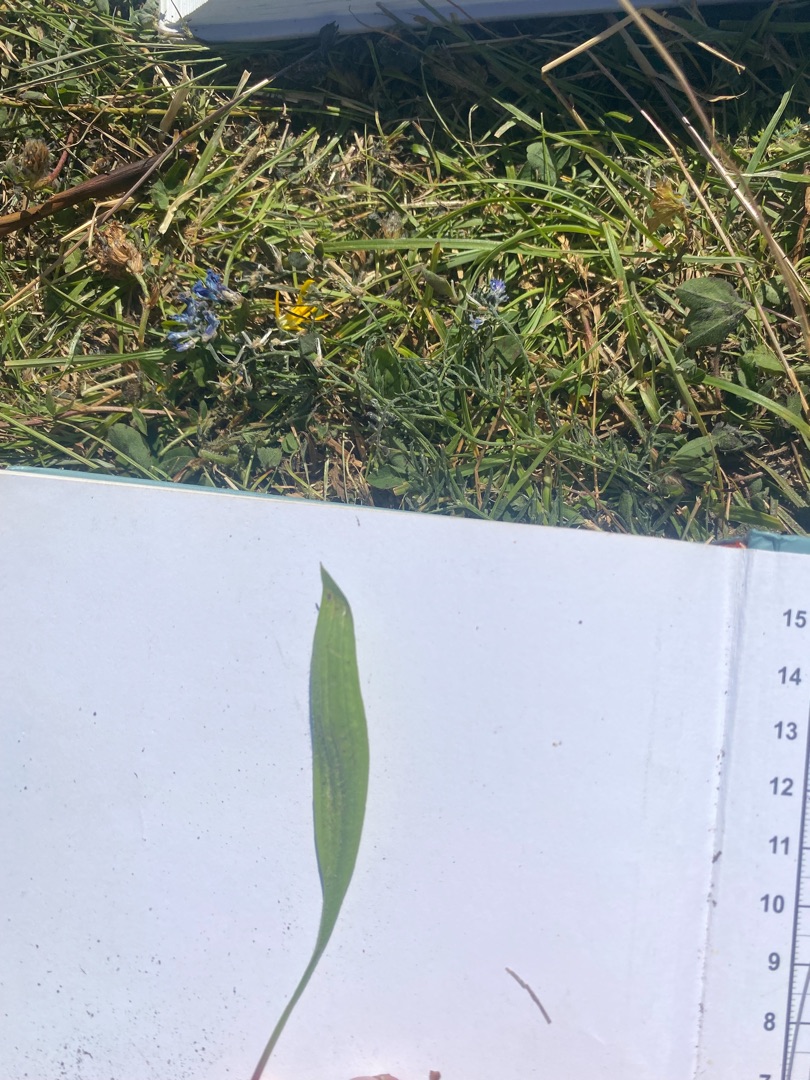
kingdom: Plantae
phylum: Tracheophyta
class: Magnoliopsida
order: Lamiales
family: Plantaginaceae
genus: Plantago
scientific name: Plantago lanceolata
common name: Lancet-vejbred
